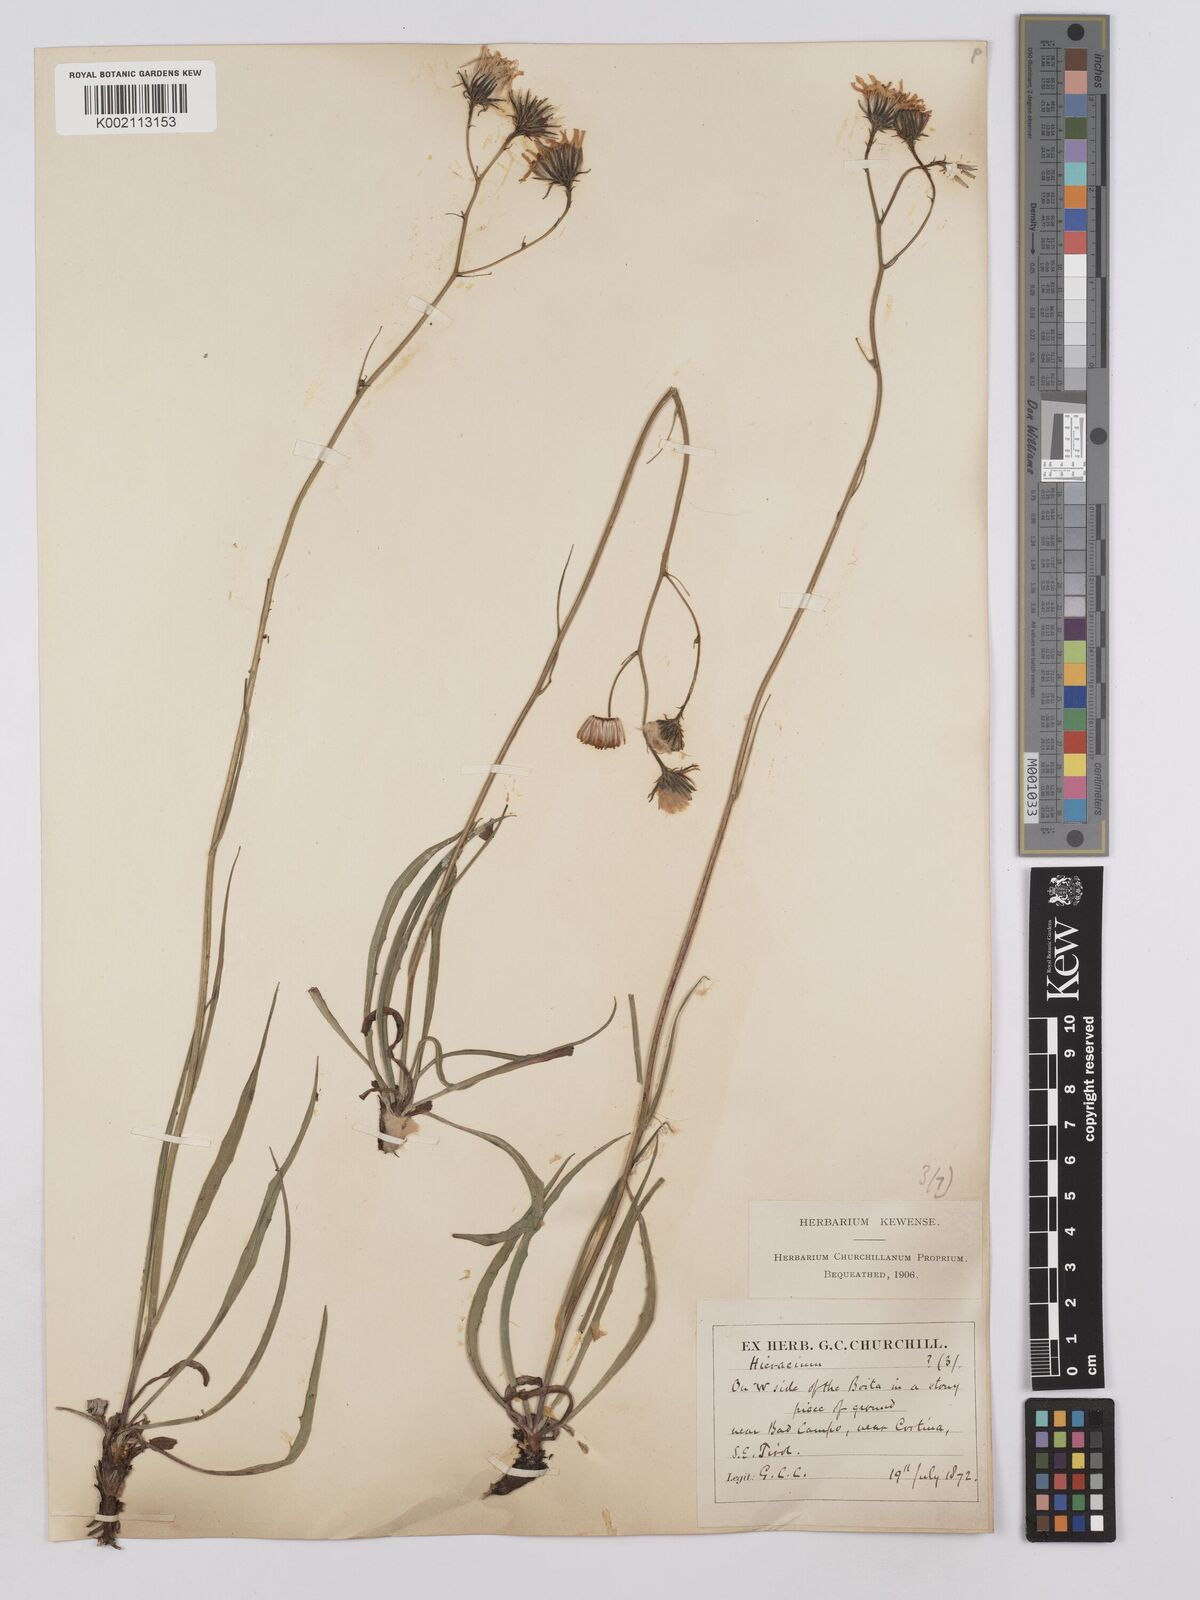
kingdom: Plantae
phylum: Tracheophyta
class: Magnoliopsida
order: Asterales
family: Asteraceae
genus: Hieracium
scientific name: Hieracium glaucum
